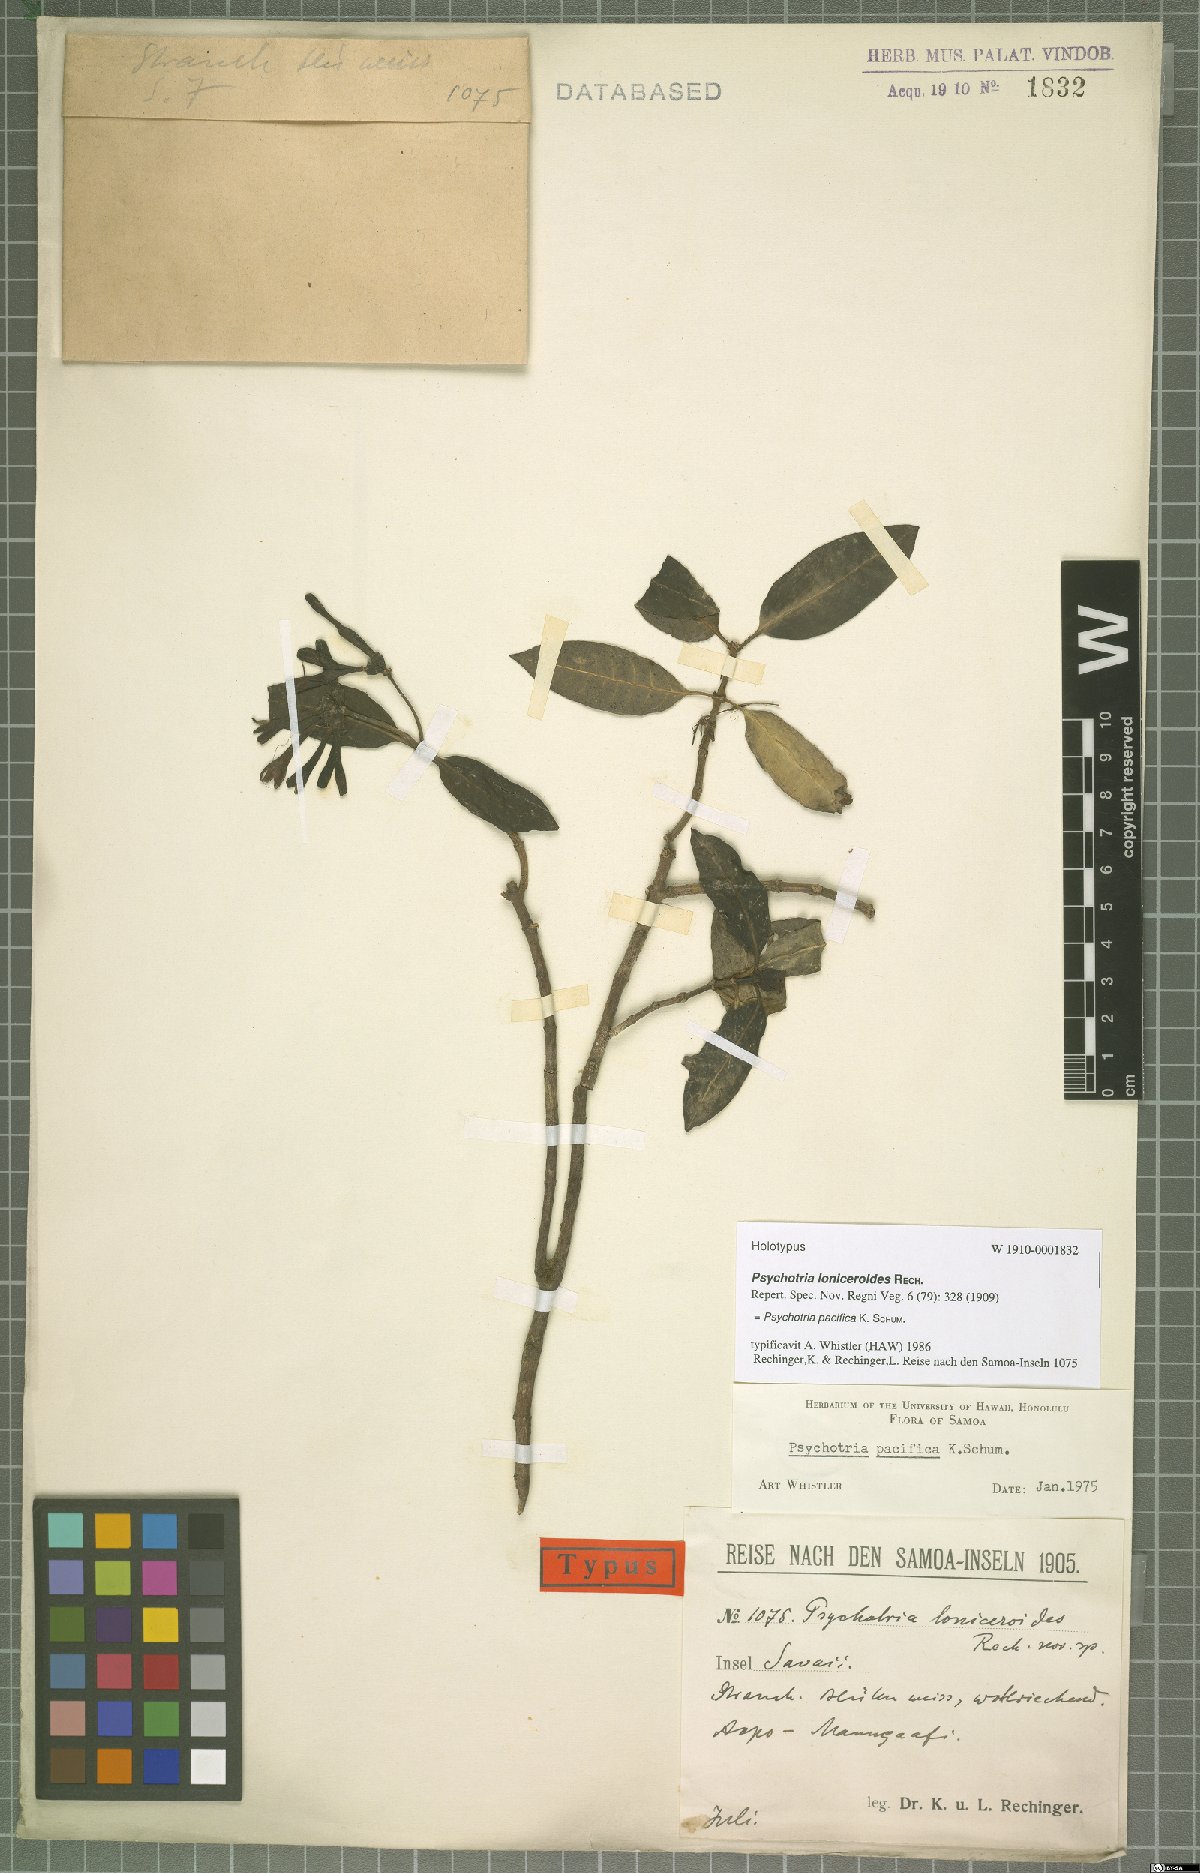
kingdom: Plantae
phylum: Tracheophyta
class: Magnoliopsida
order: Gentianales
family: Rubiaceae
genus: Psychotria
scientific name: Psychotria pacifica
